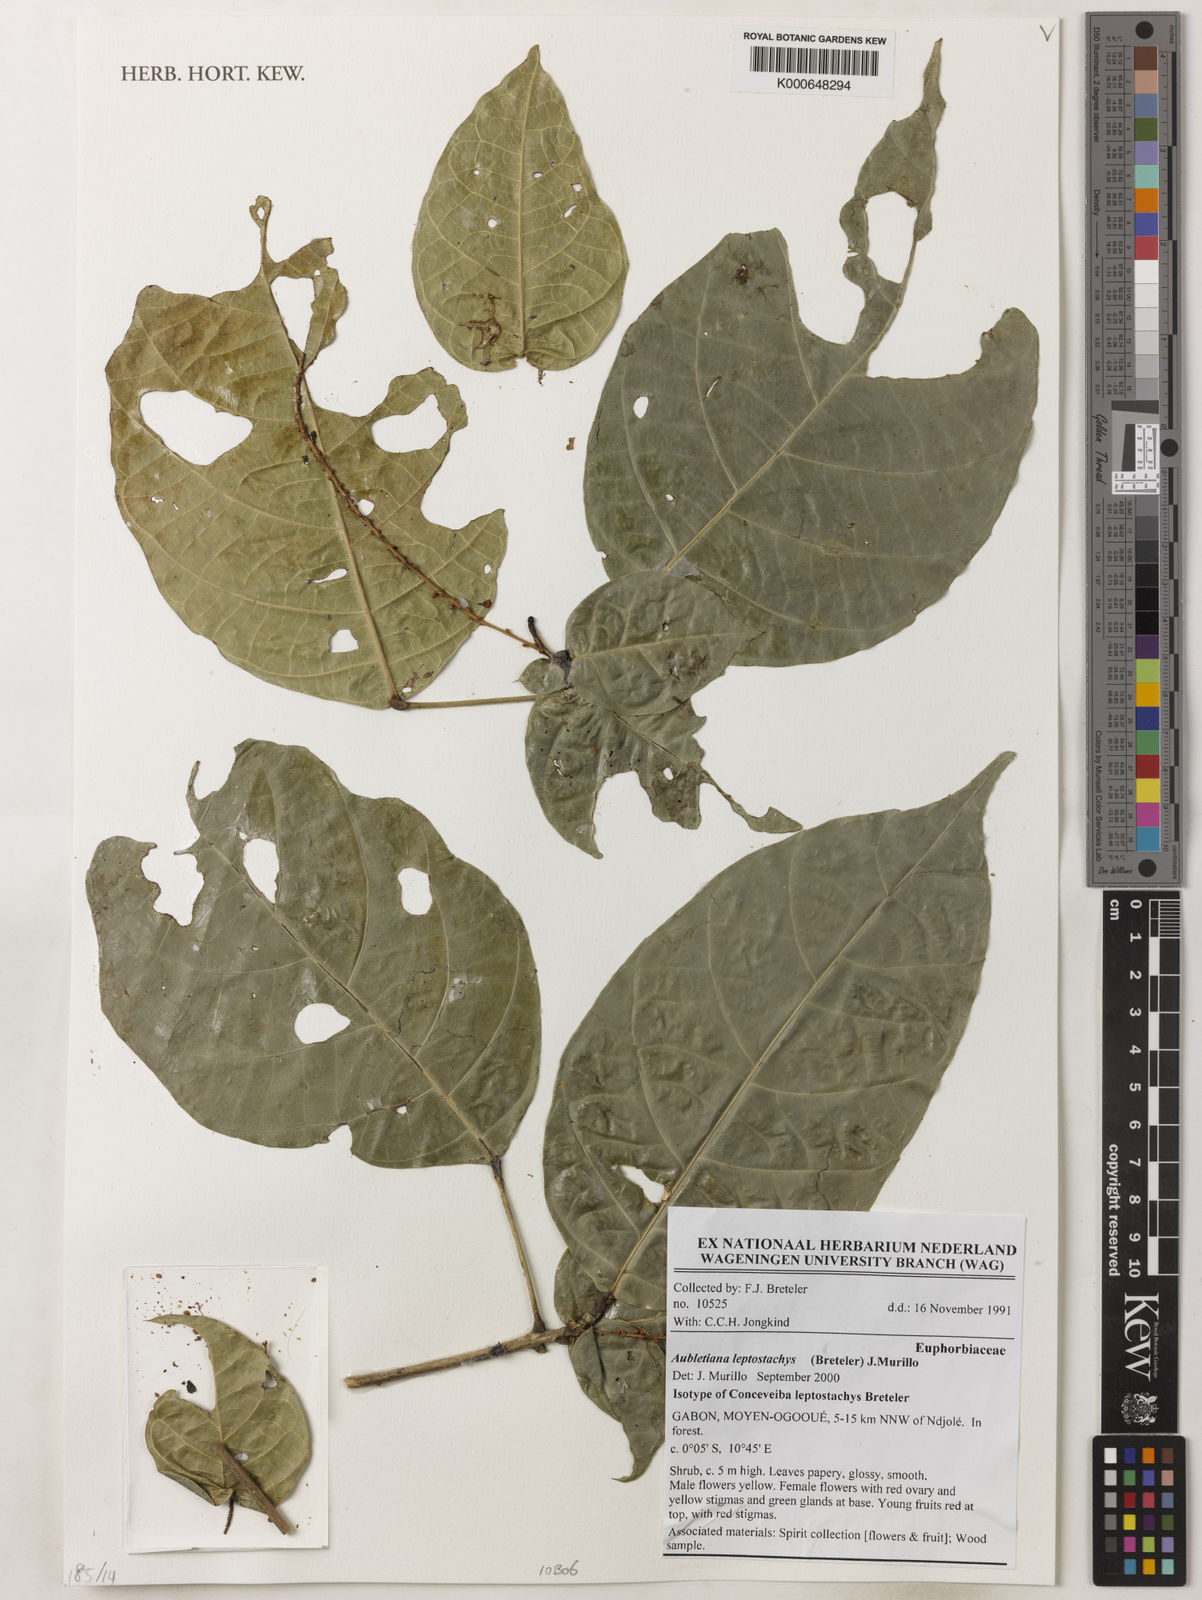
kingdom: Plantae
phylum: Tracheophyta
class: Magnoliopsida
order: Malpighiales
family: Euphorbiaceae
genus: Aubletiana
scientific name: Aubletiana leptostachys
